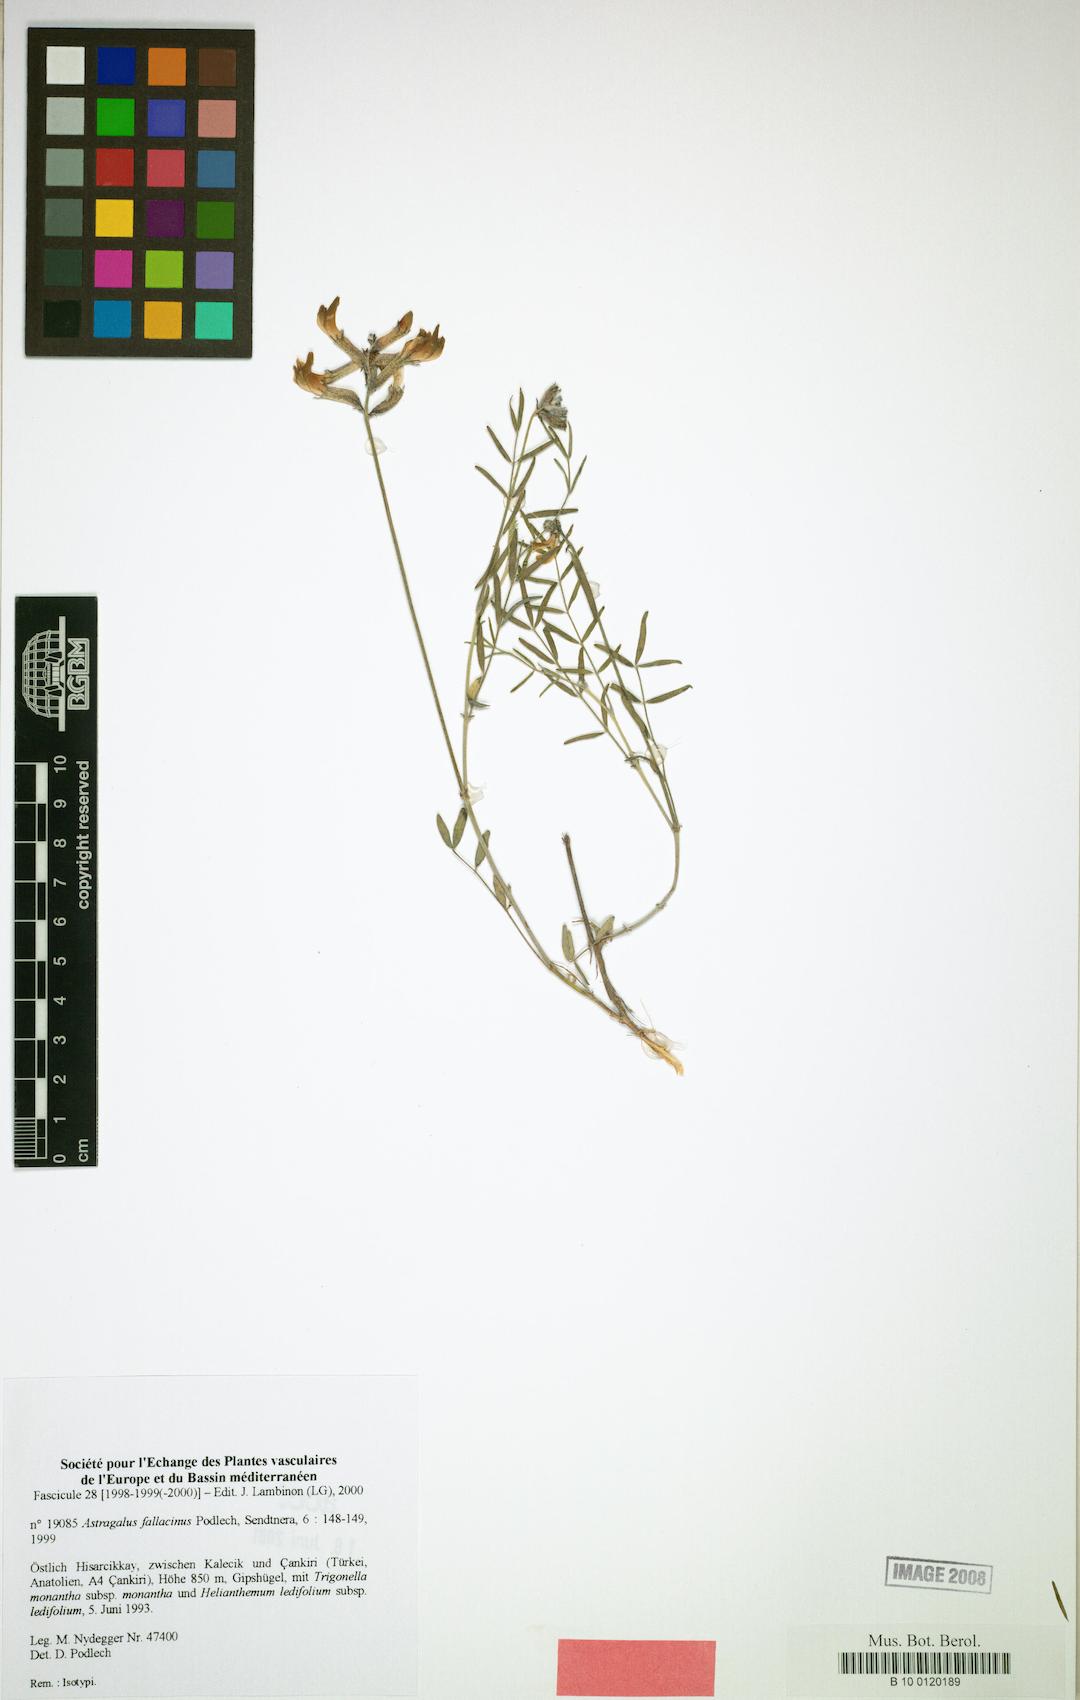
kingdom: Plantae
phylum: Tracheophyta
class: Magnoliopsida
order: Fabales
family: Fabaceae
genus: Astragalus
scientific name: Astragalus fallacinus
